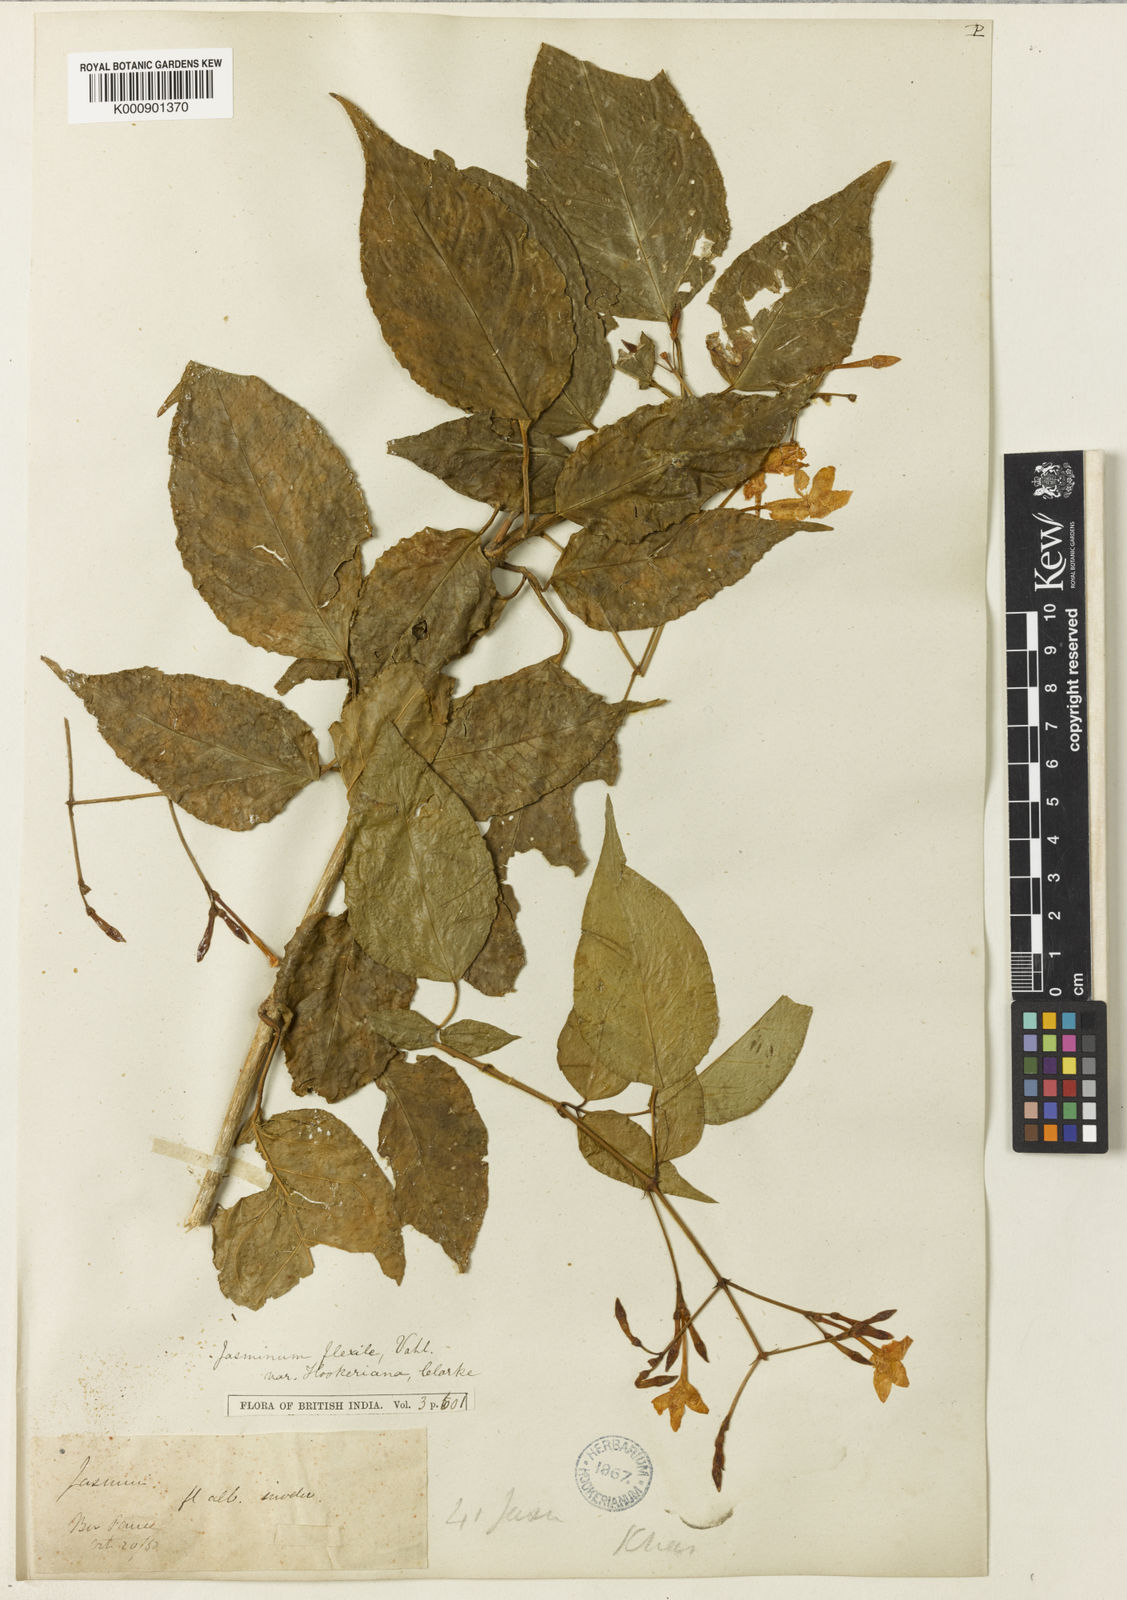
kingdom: Plantae
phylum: Tracheophyta
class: Magnoliopsida
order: Lamiales
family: Oleaceae
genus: Jasminum
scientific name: Jasminum flexile
